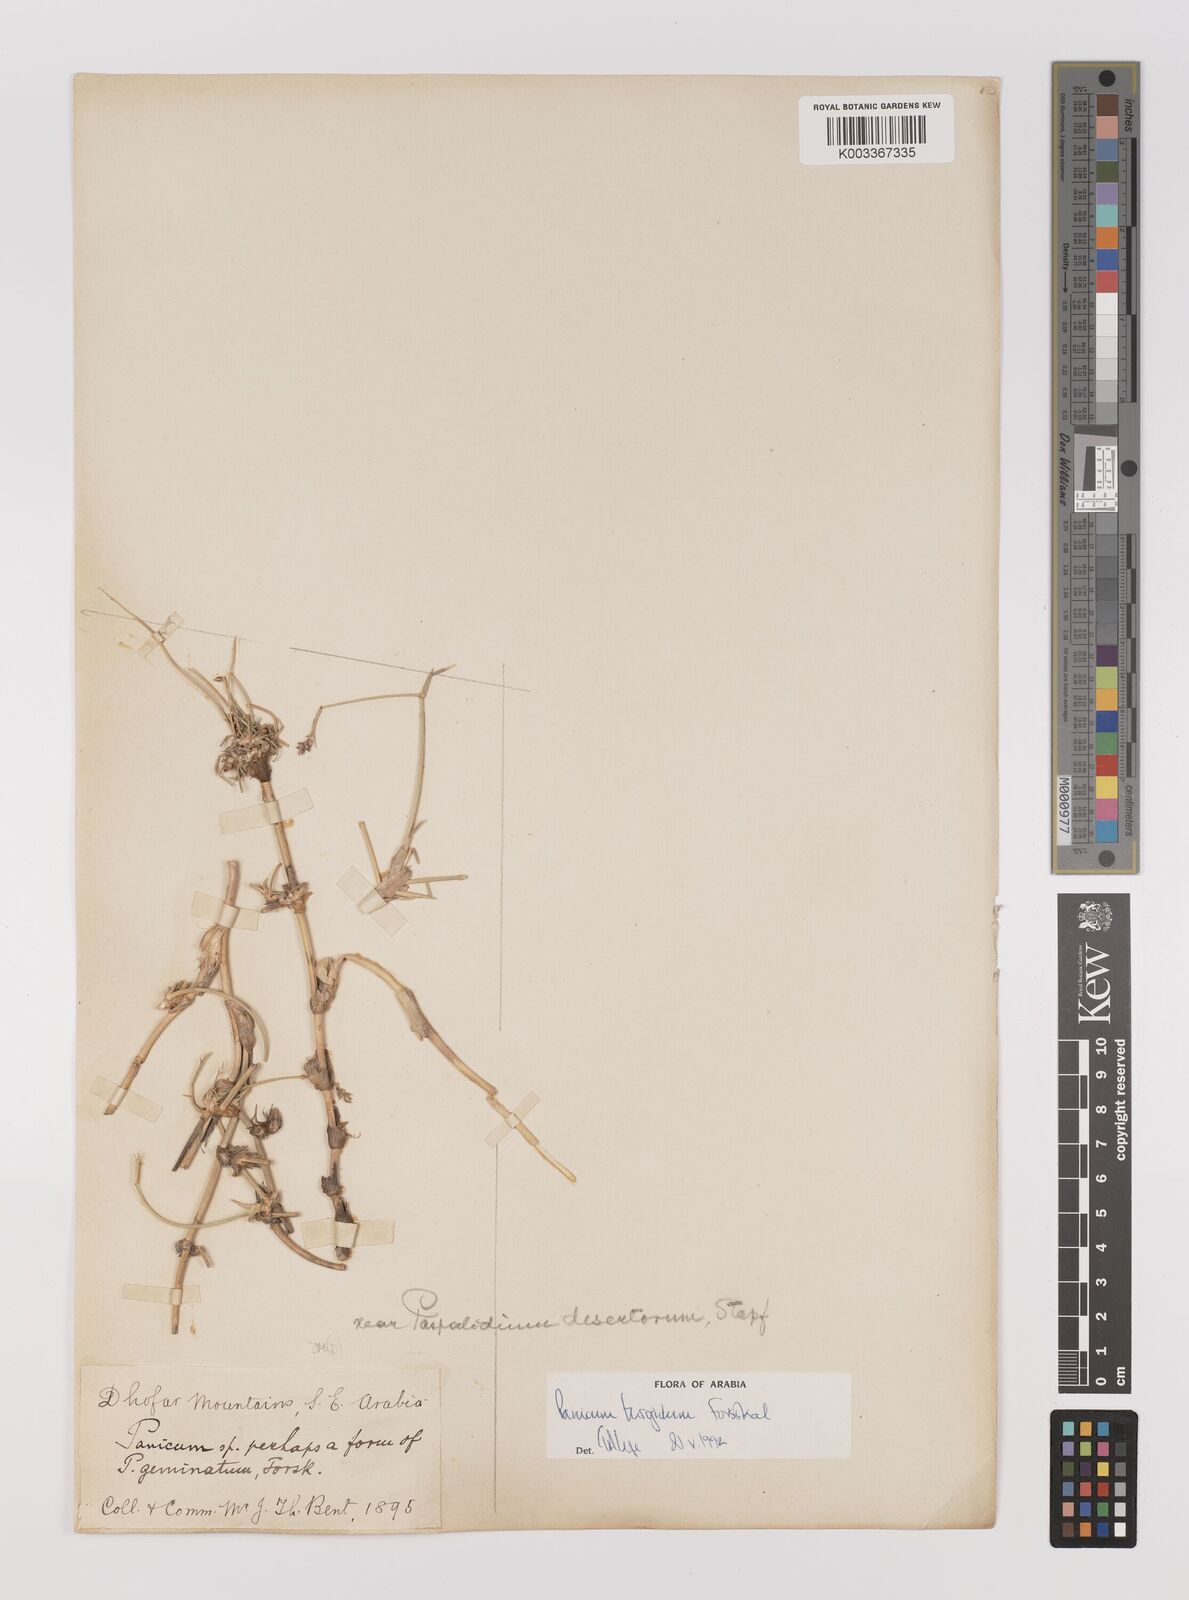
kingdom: Plantae
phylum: Tracheophyta
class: Liliopsida
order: Poales
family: Poaceae
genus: Panicum
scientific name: Panicum turgidum
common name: Desert grass
